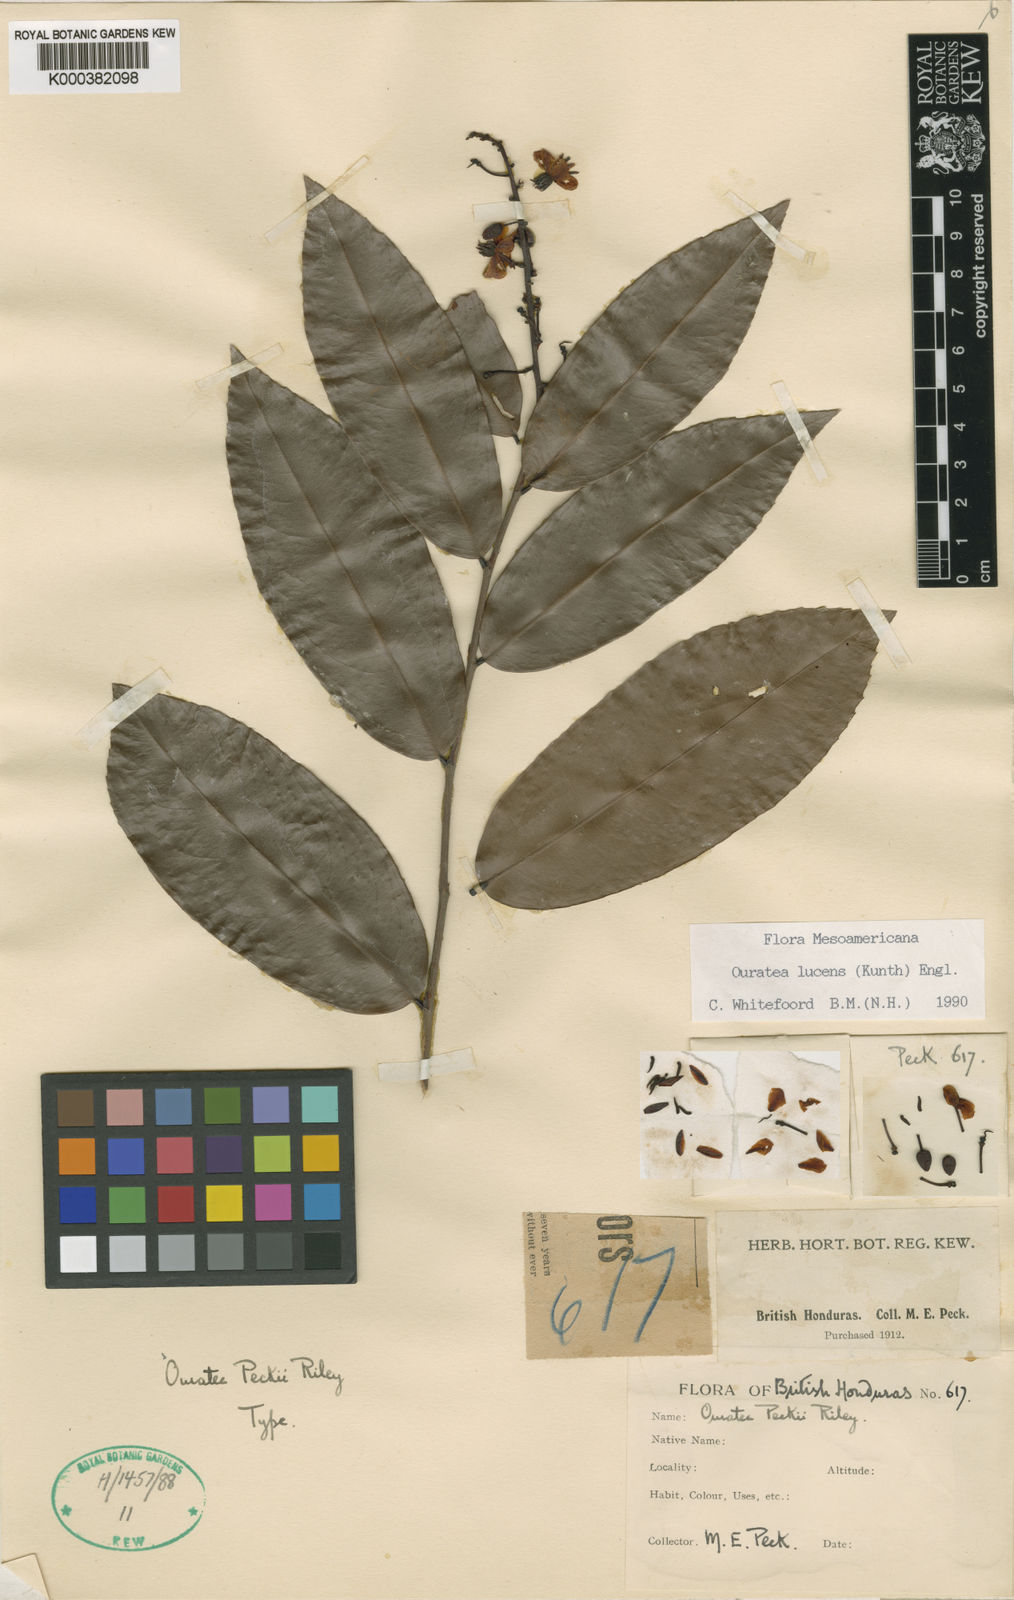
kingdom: Plantae
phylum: Tracheophyta
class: Magnoliopsida
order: Malpighiales
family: Ochnaceae
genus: Ouratea
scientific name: Ouratea lucens
